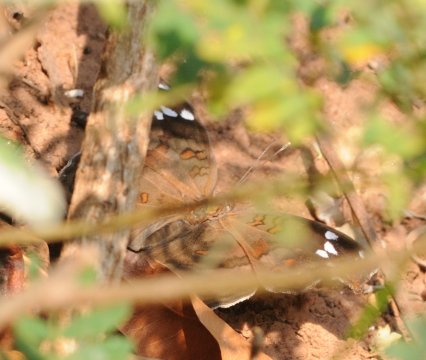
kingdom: Animalia
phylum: Arthropoda
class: Insecta
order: Lepidoptera
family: Nymphalidae
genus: Junonia
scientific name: Junonia natalica
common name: Natal Pansy
